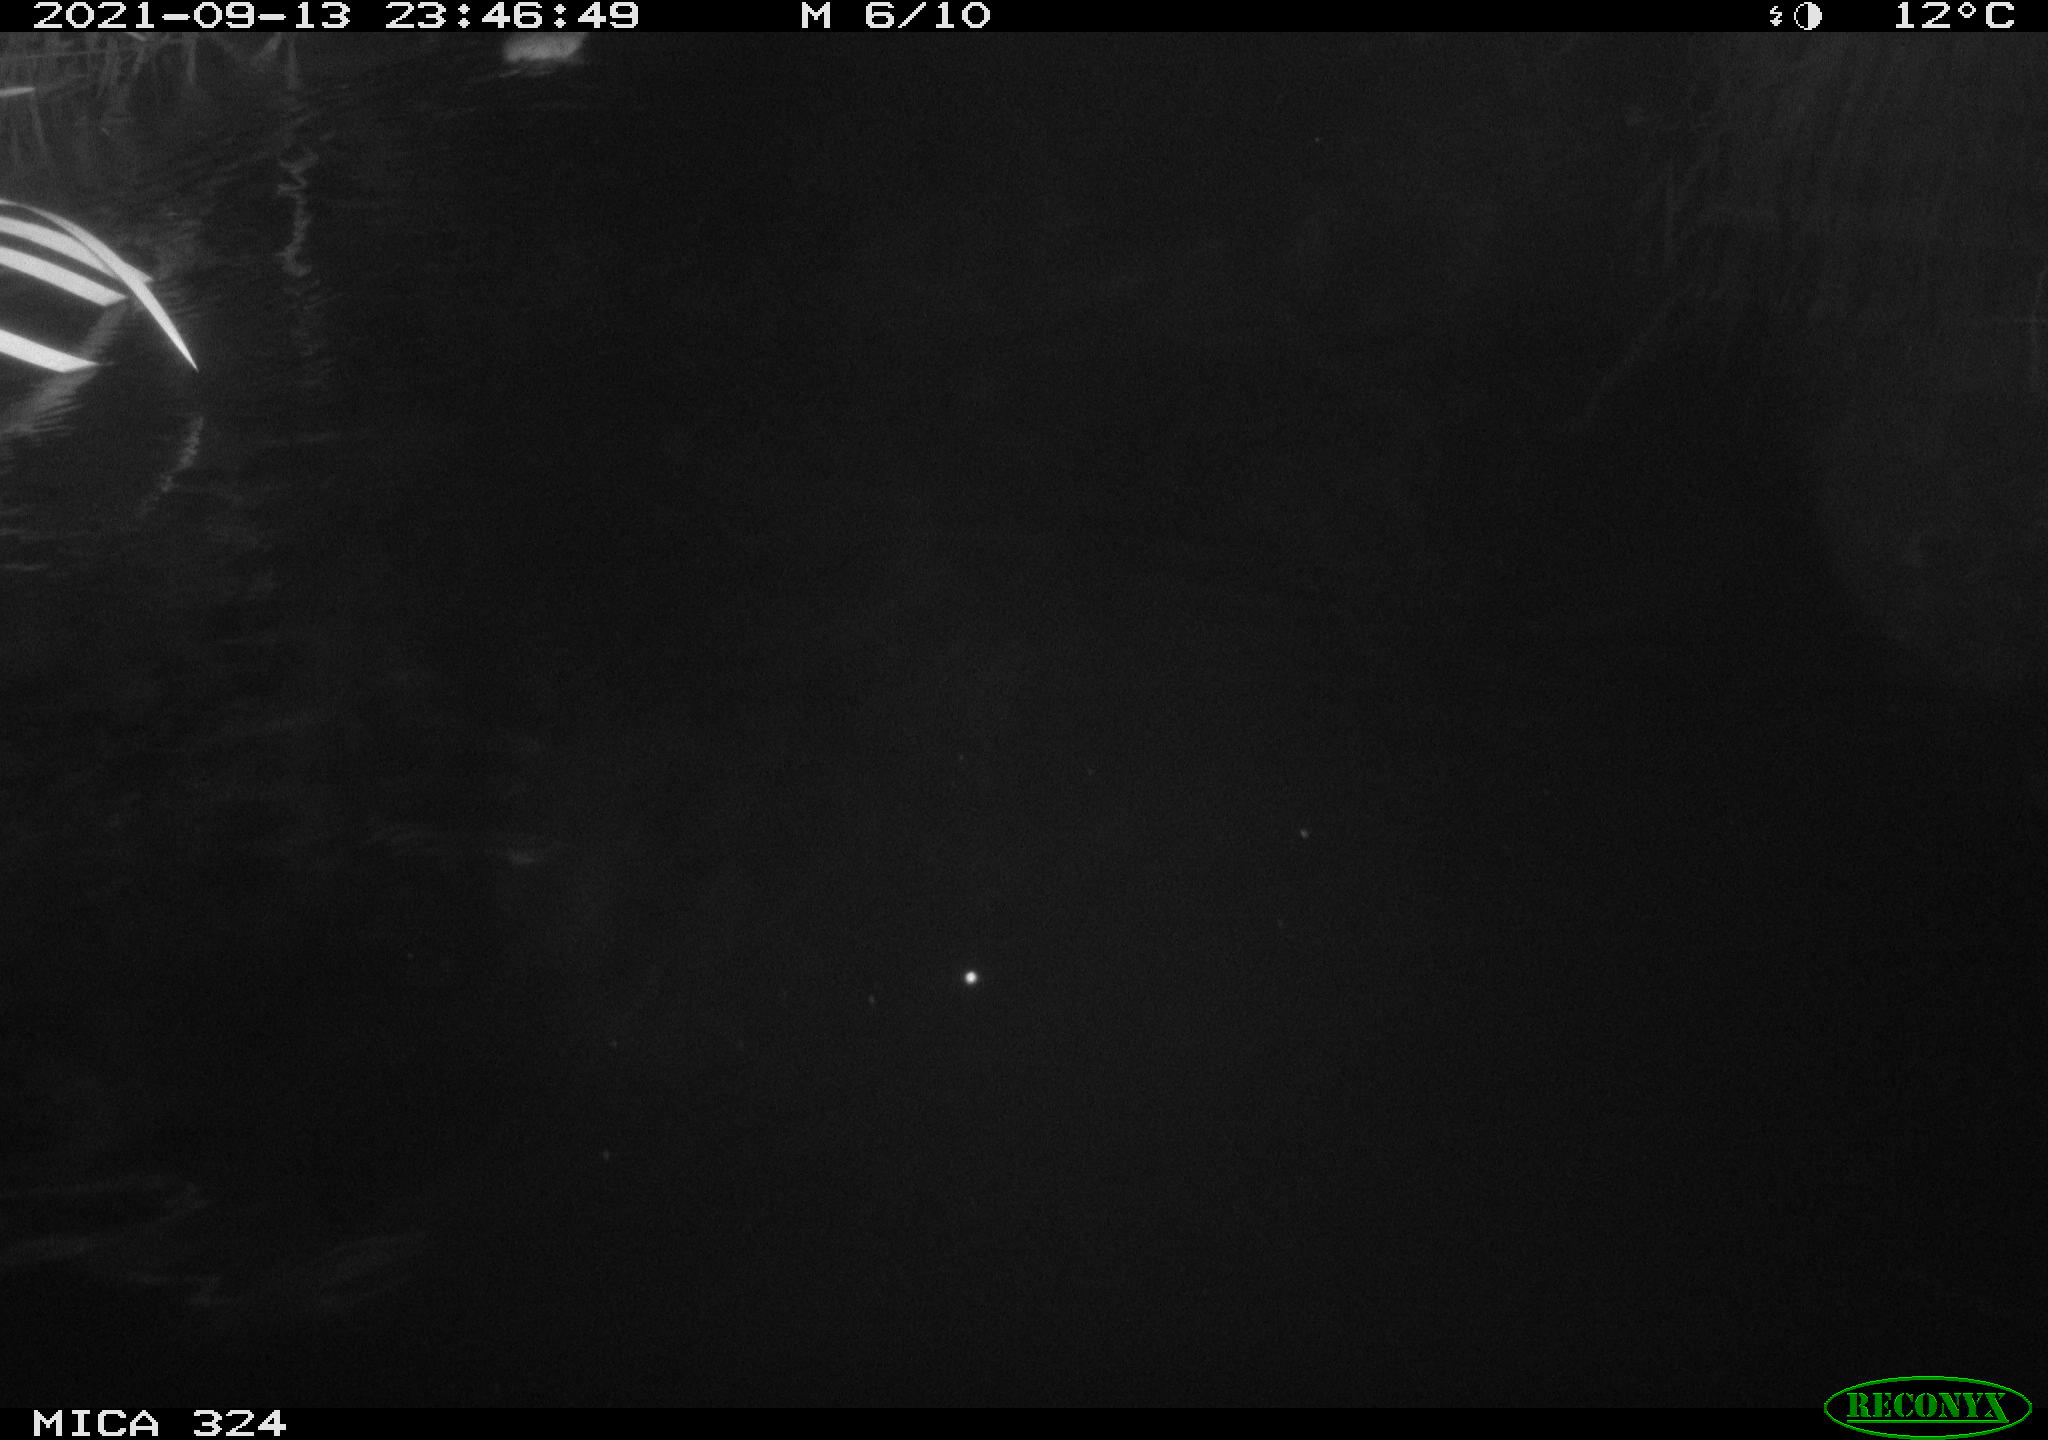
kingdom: Animalia
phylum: Chordata
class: Mammalia
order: Rodentia
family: Cricetidae
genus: Ondatra
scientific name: Ondatra zibethicus
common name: Muskrat
